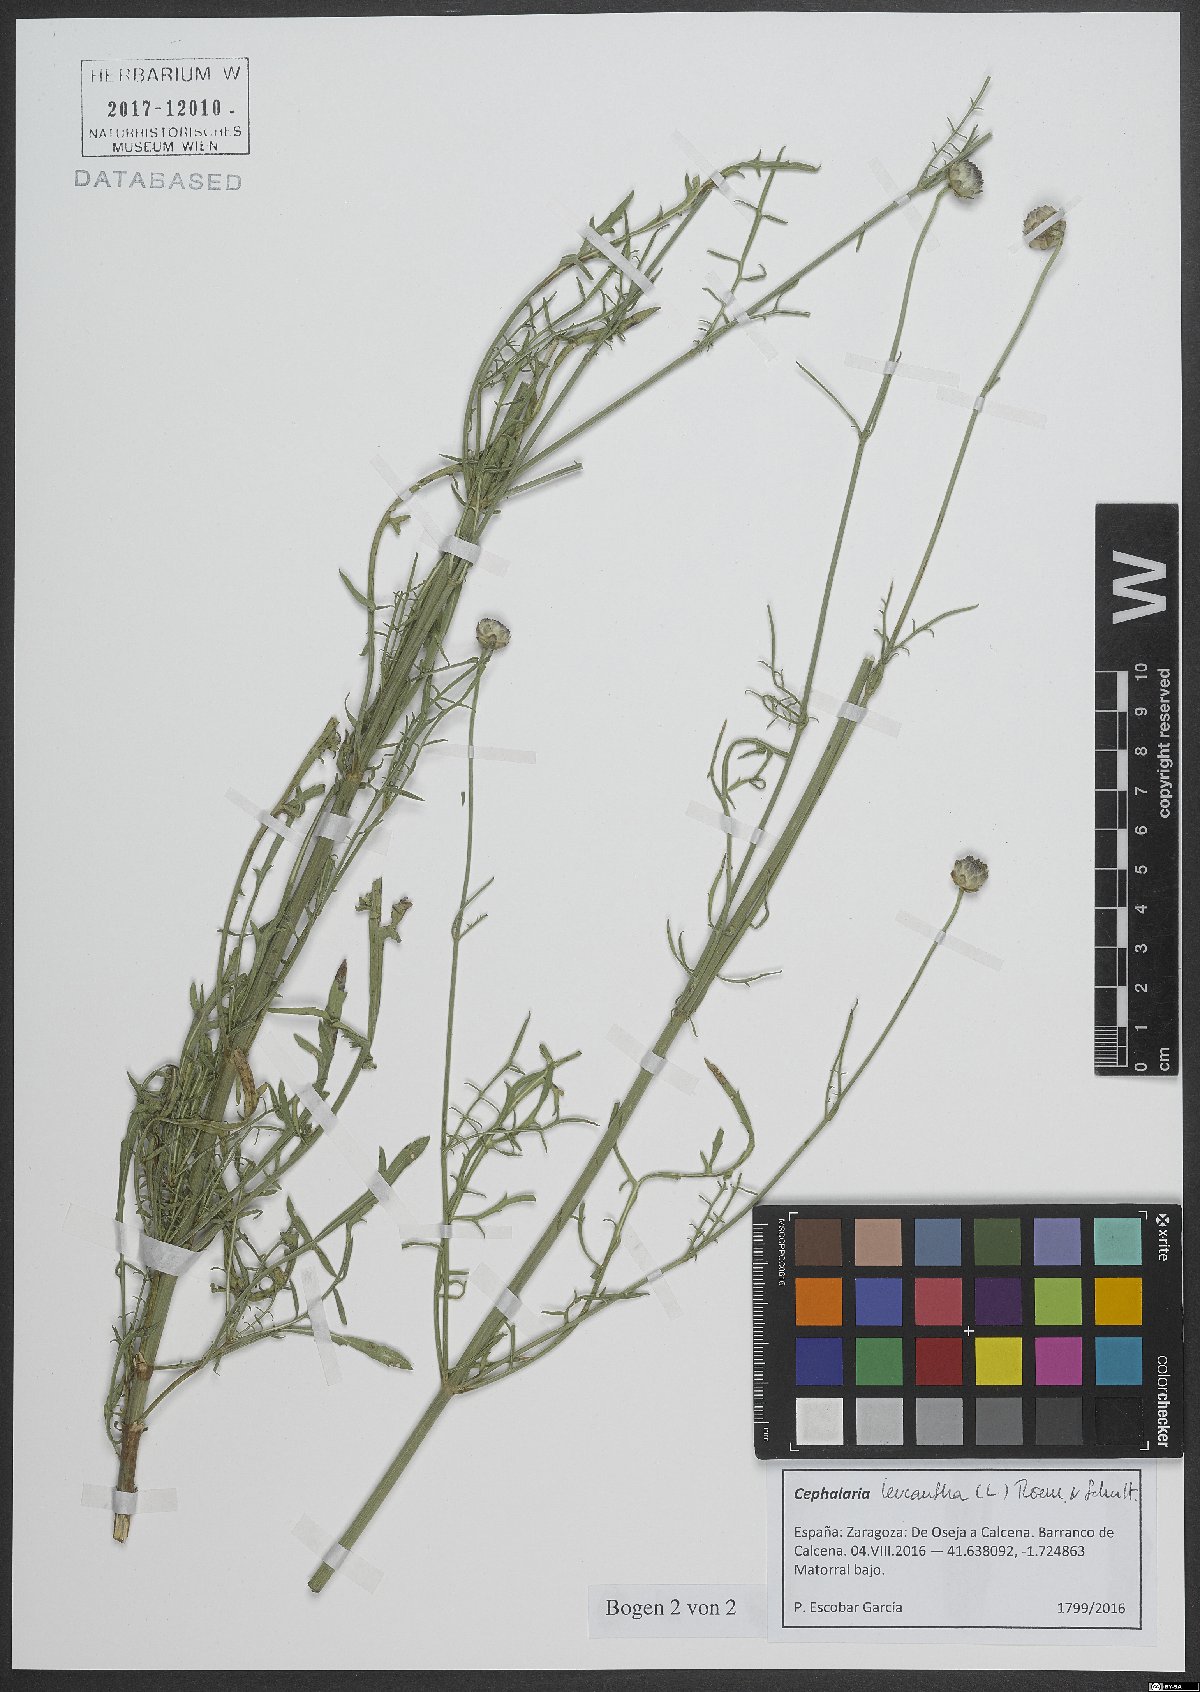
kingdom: Plantae
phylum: Tracheophyta
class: Magnoliopsida
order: Dipsacales
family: Caprifoliaceae
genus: Cephalaria
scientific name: Cephalaria leucantha
